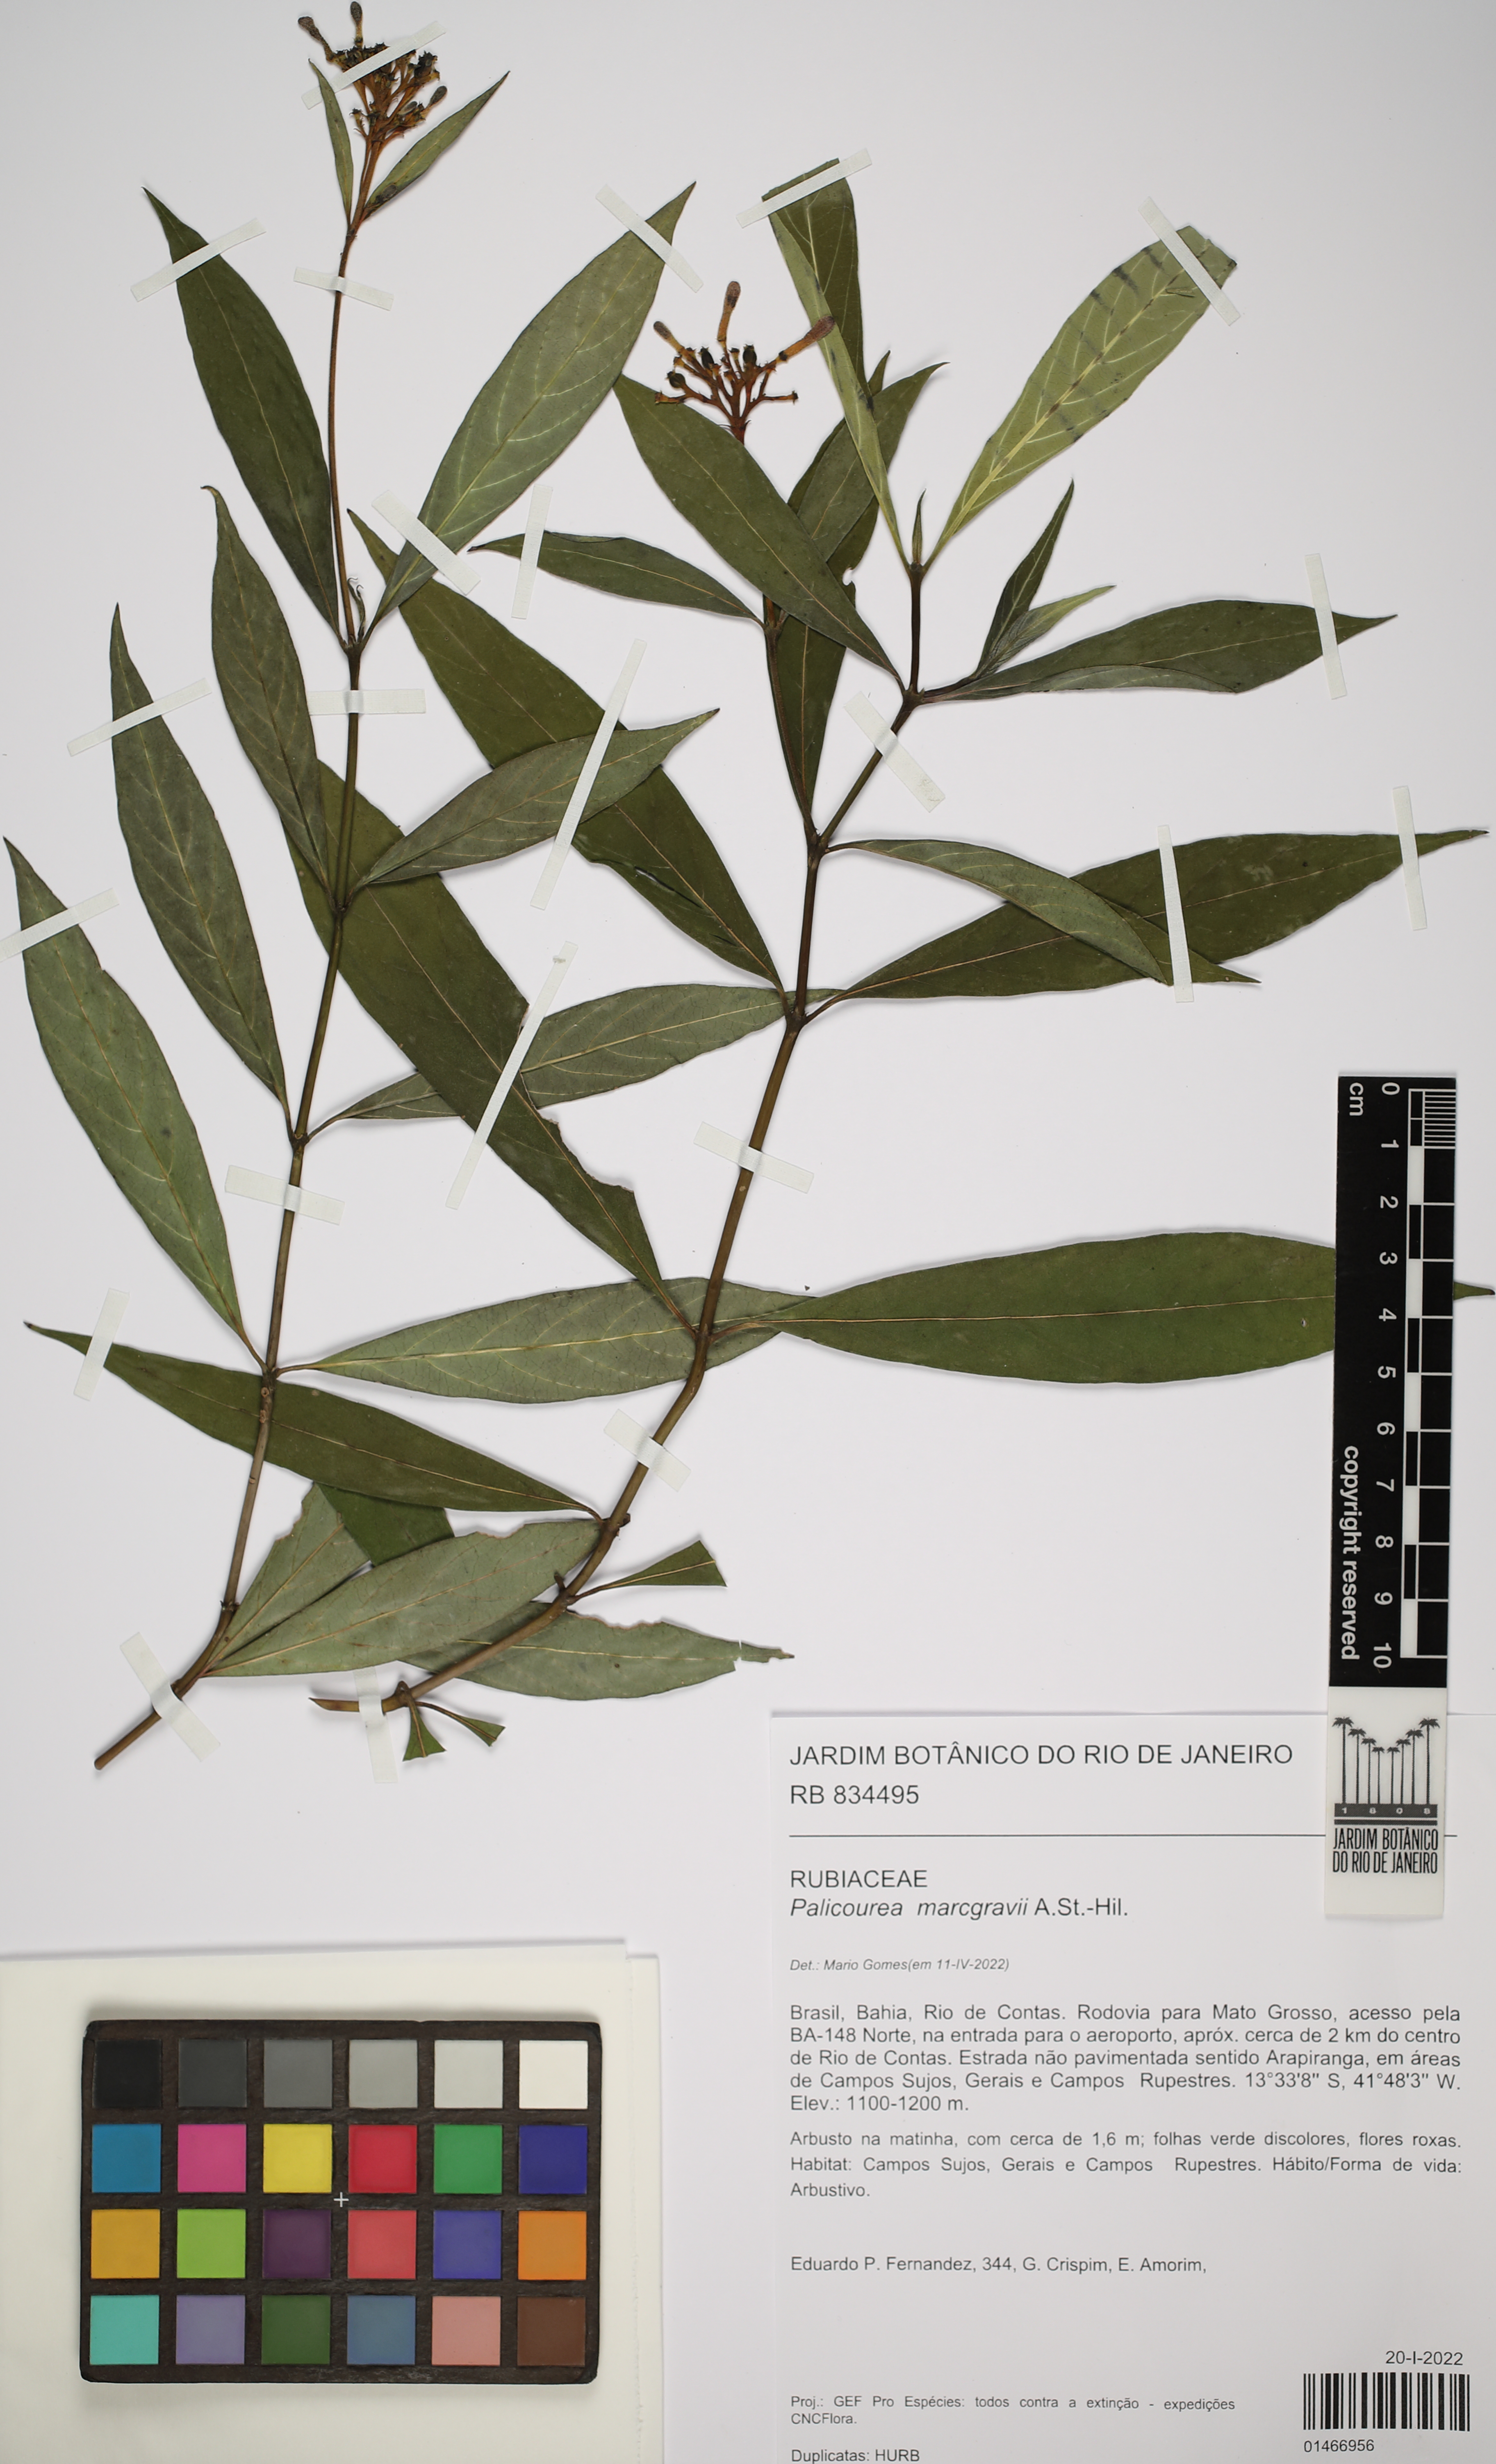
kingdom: Plantae
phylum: Tracheophyta
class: Magnoliopsida
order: Gentianales
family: Rubiaceae
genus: Palicourea
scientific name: Palicourea marcgravii
